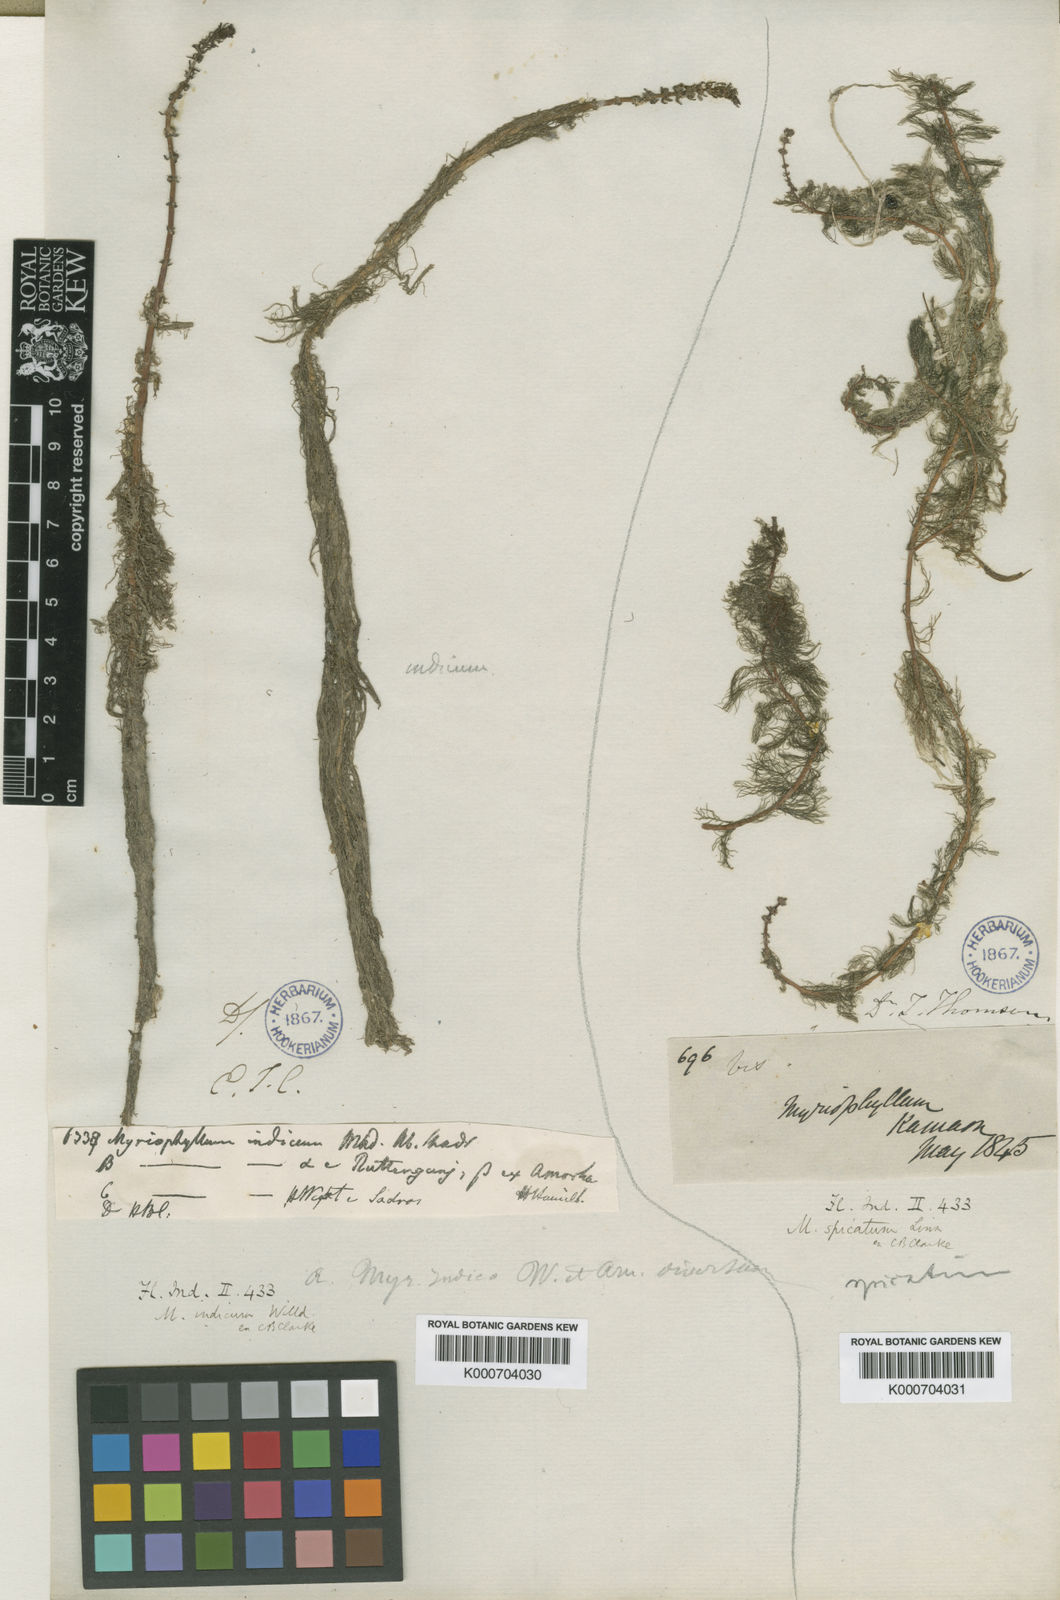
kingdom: Plantae
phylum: Tracheophyta
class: Magnoliopsida
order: Saxifragales
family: Haloragaceae
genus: Myriophyllum
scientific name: Myriophyllum indicum
